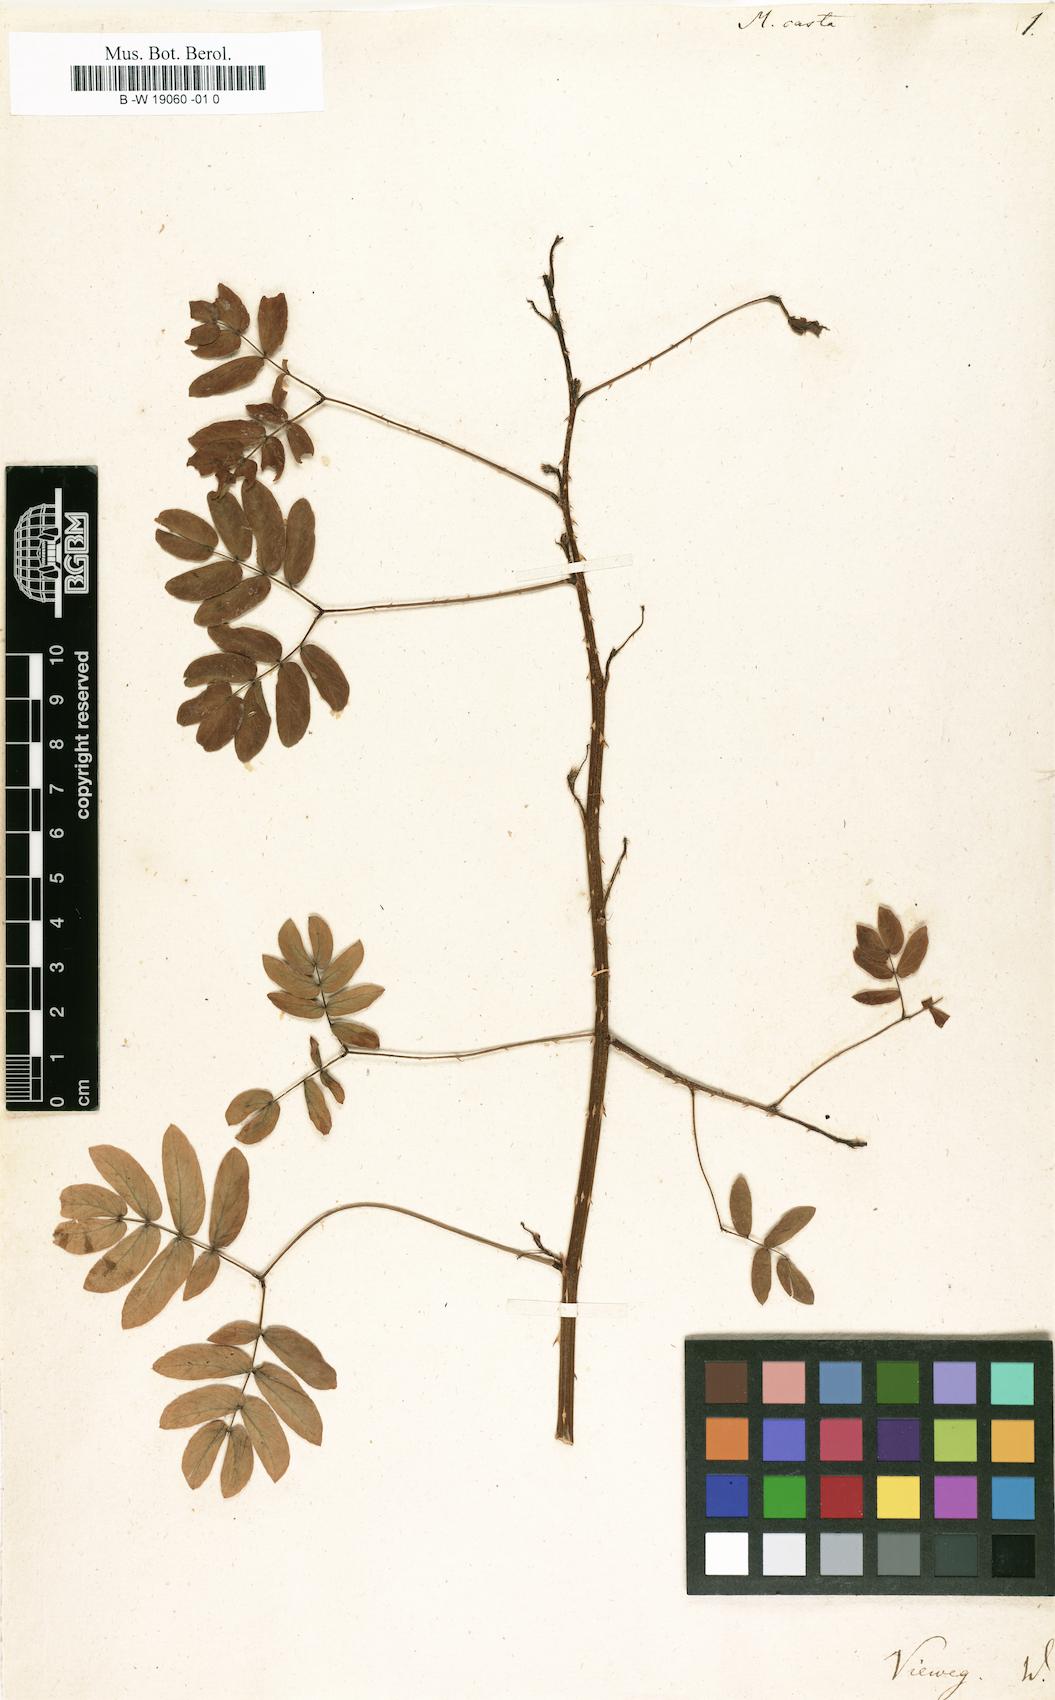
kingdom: Plantae
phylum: Tracheophyta
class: Magnoliopsida
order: Fabales
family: Fabaceae
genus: Mimosa
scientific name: Mimosa casta
